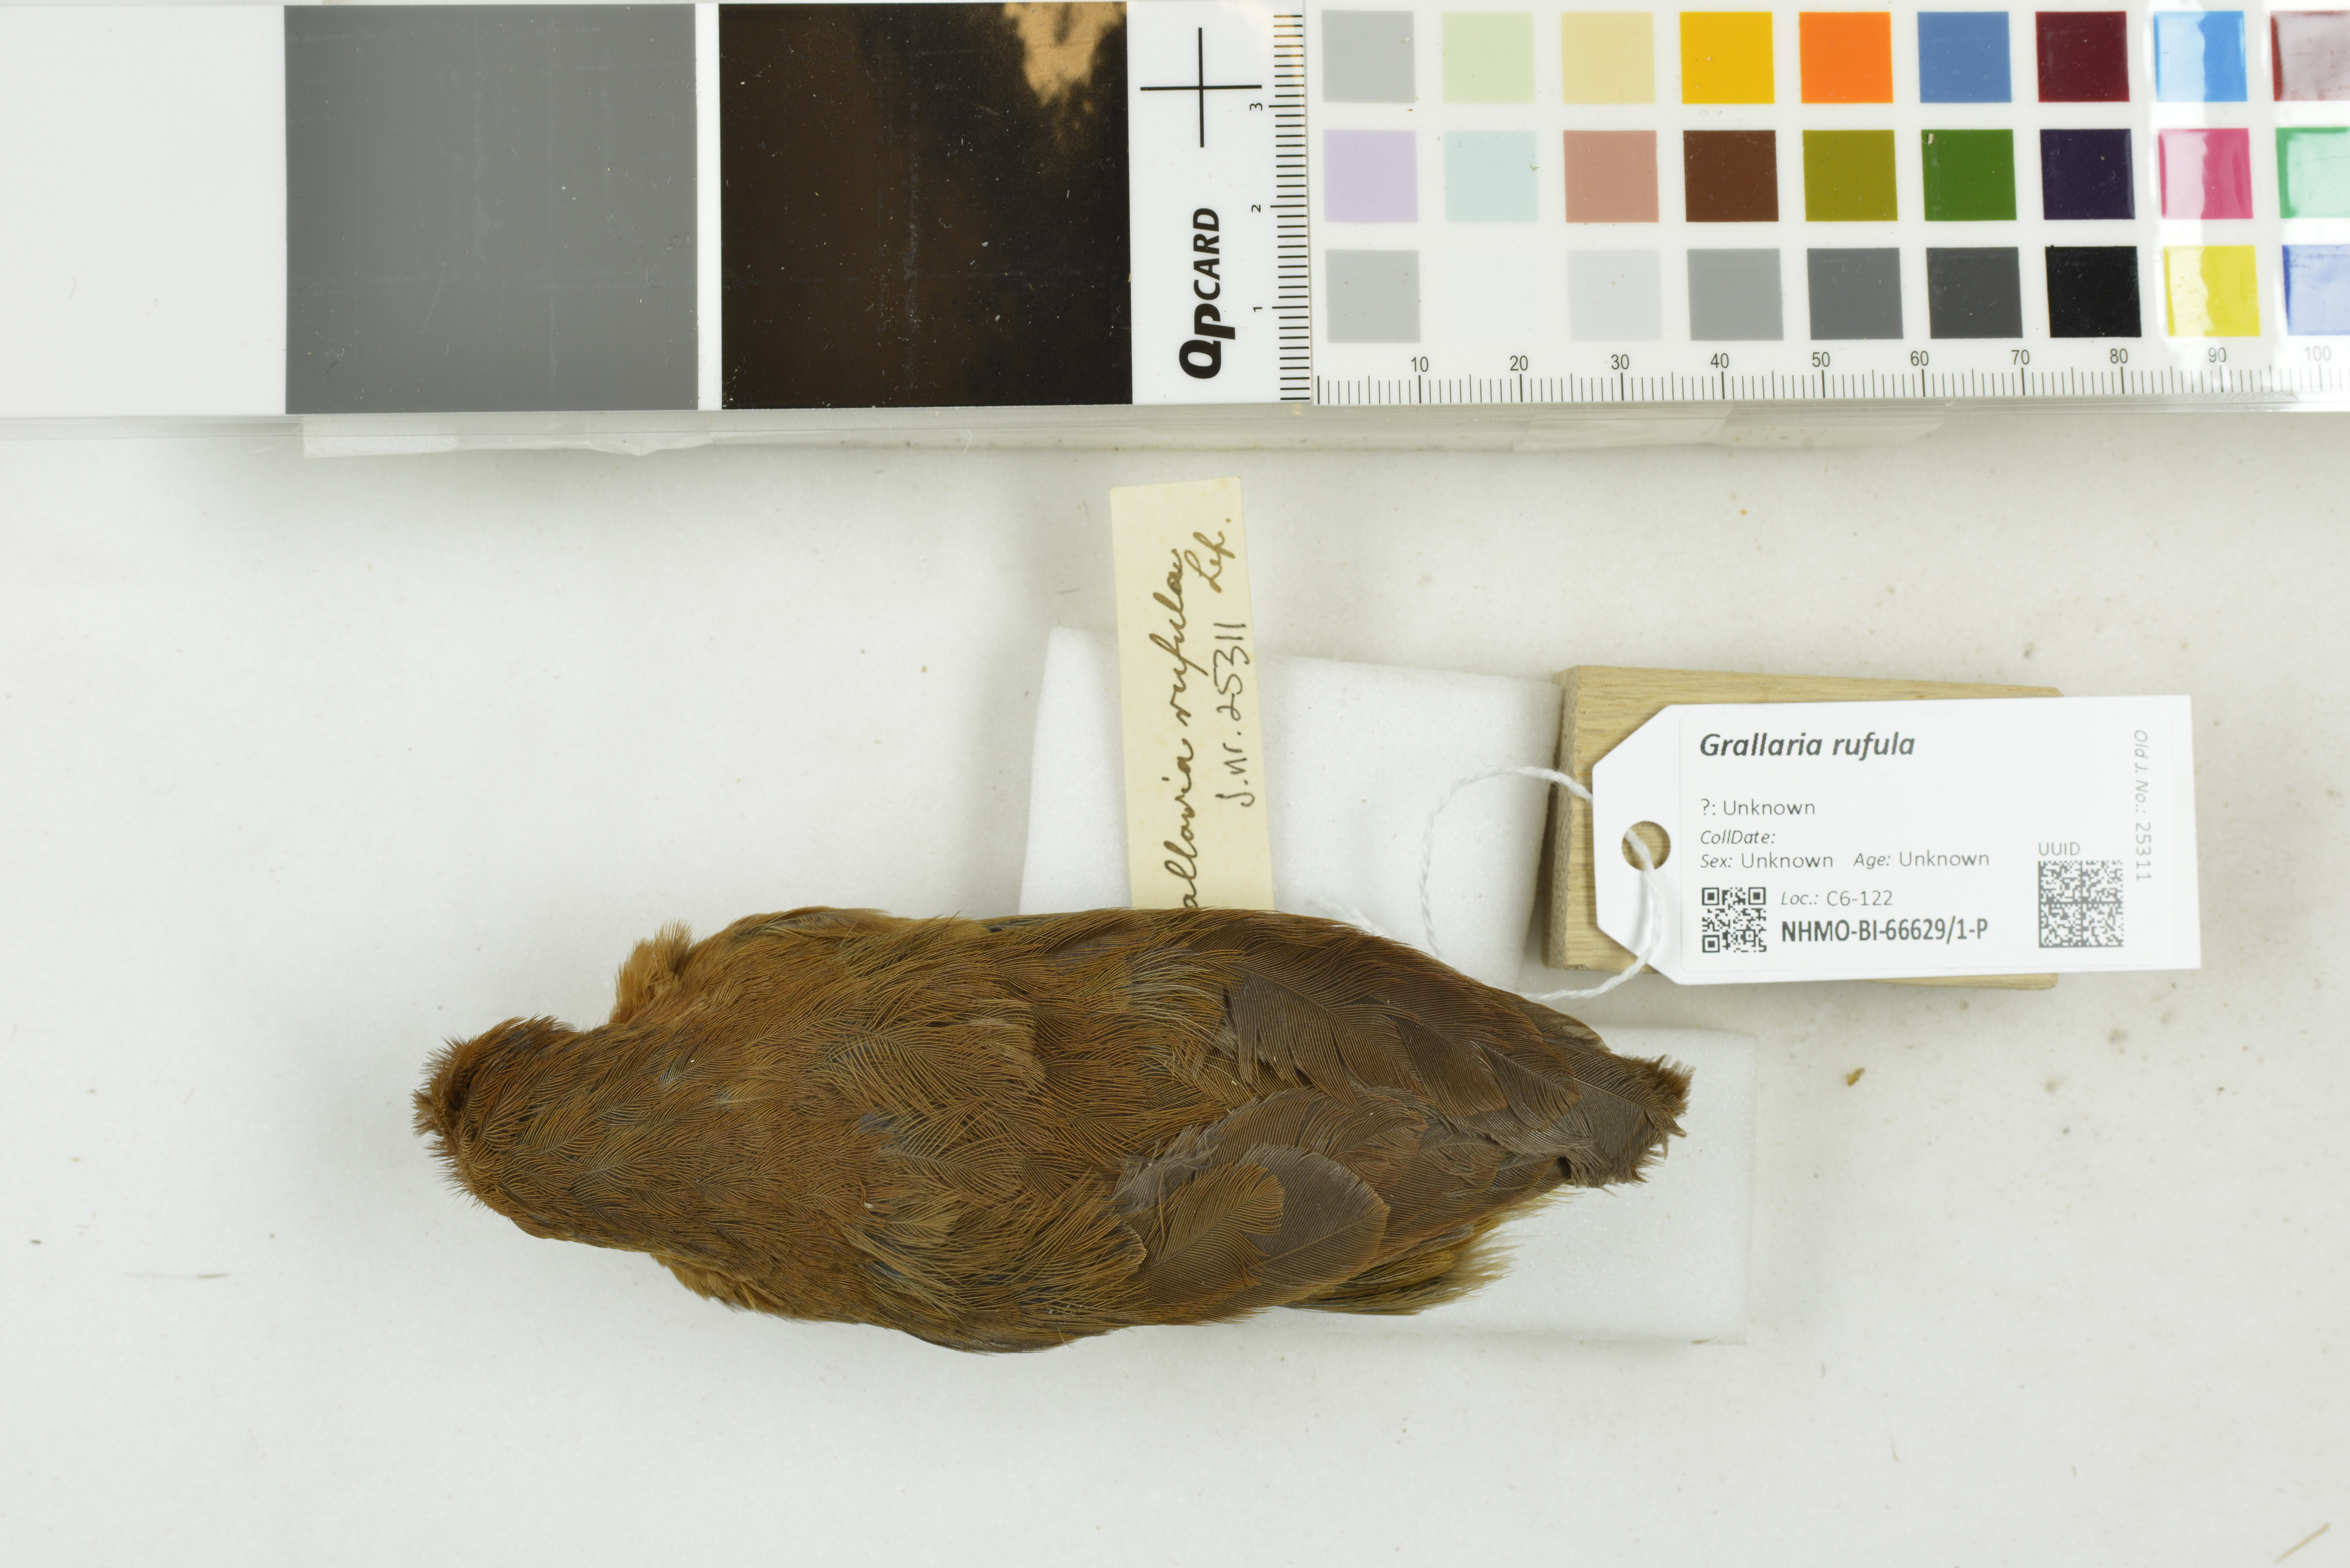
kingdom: Animalia
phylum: Chordata
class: Aves
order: Passeriformes
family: Grallariidae
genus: Grallaria
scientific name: Grallaria rufula
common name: Rufous antpitta
